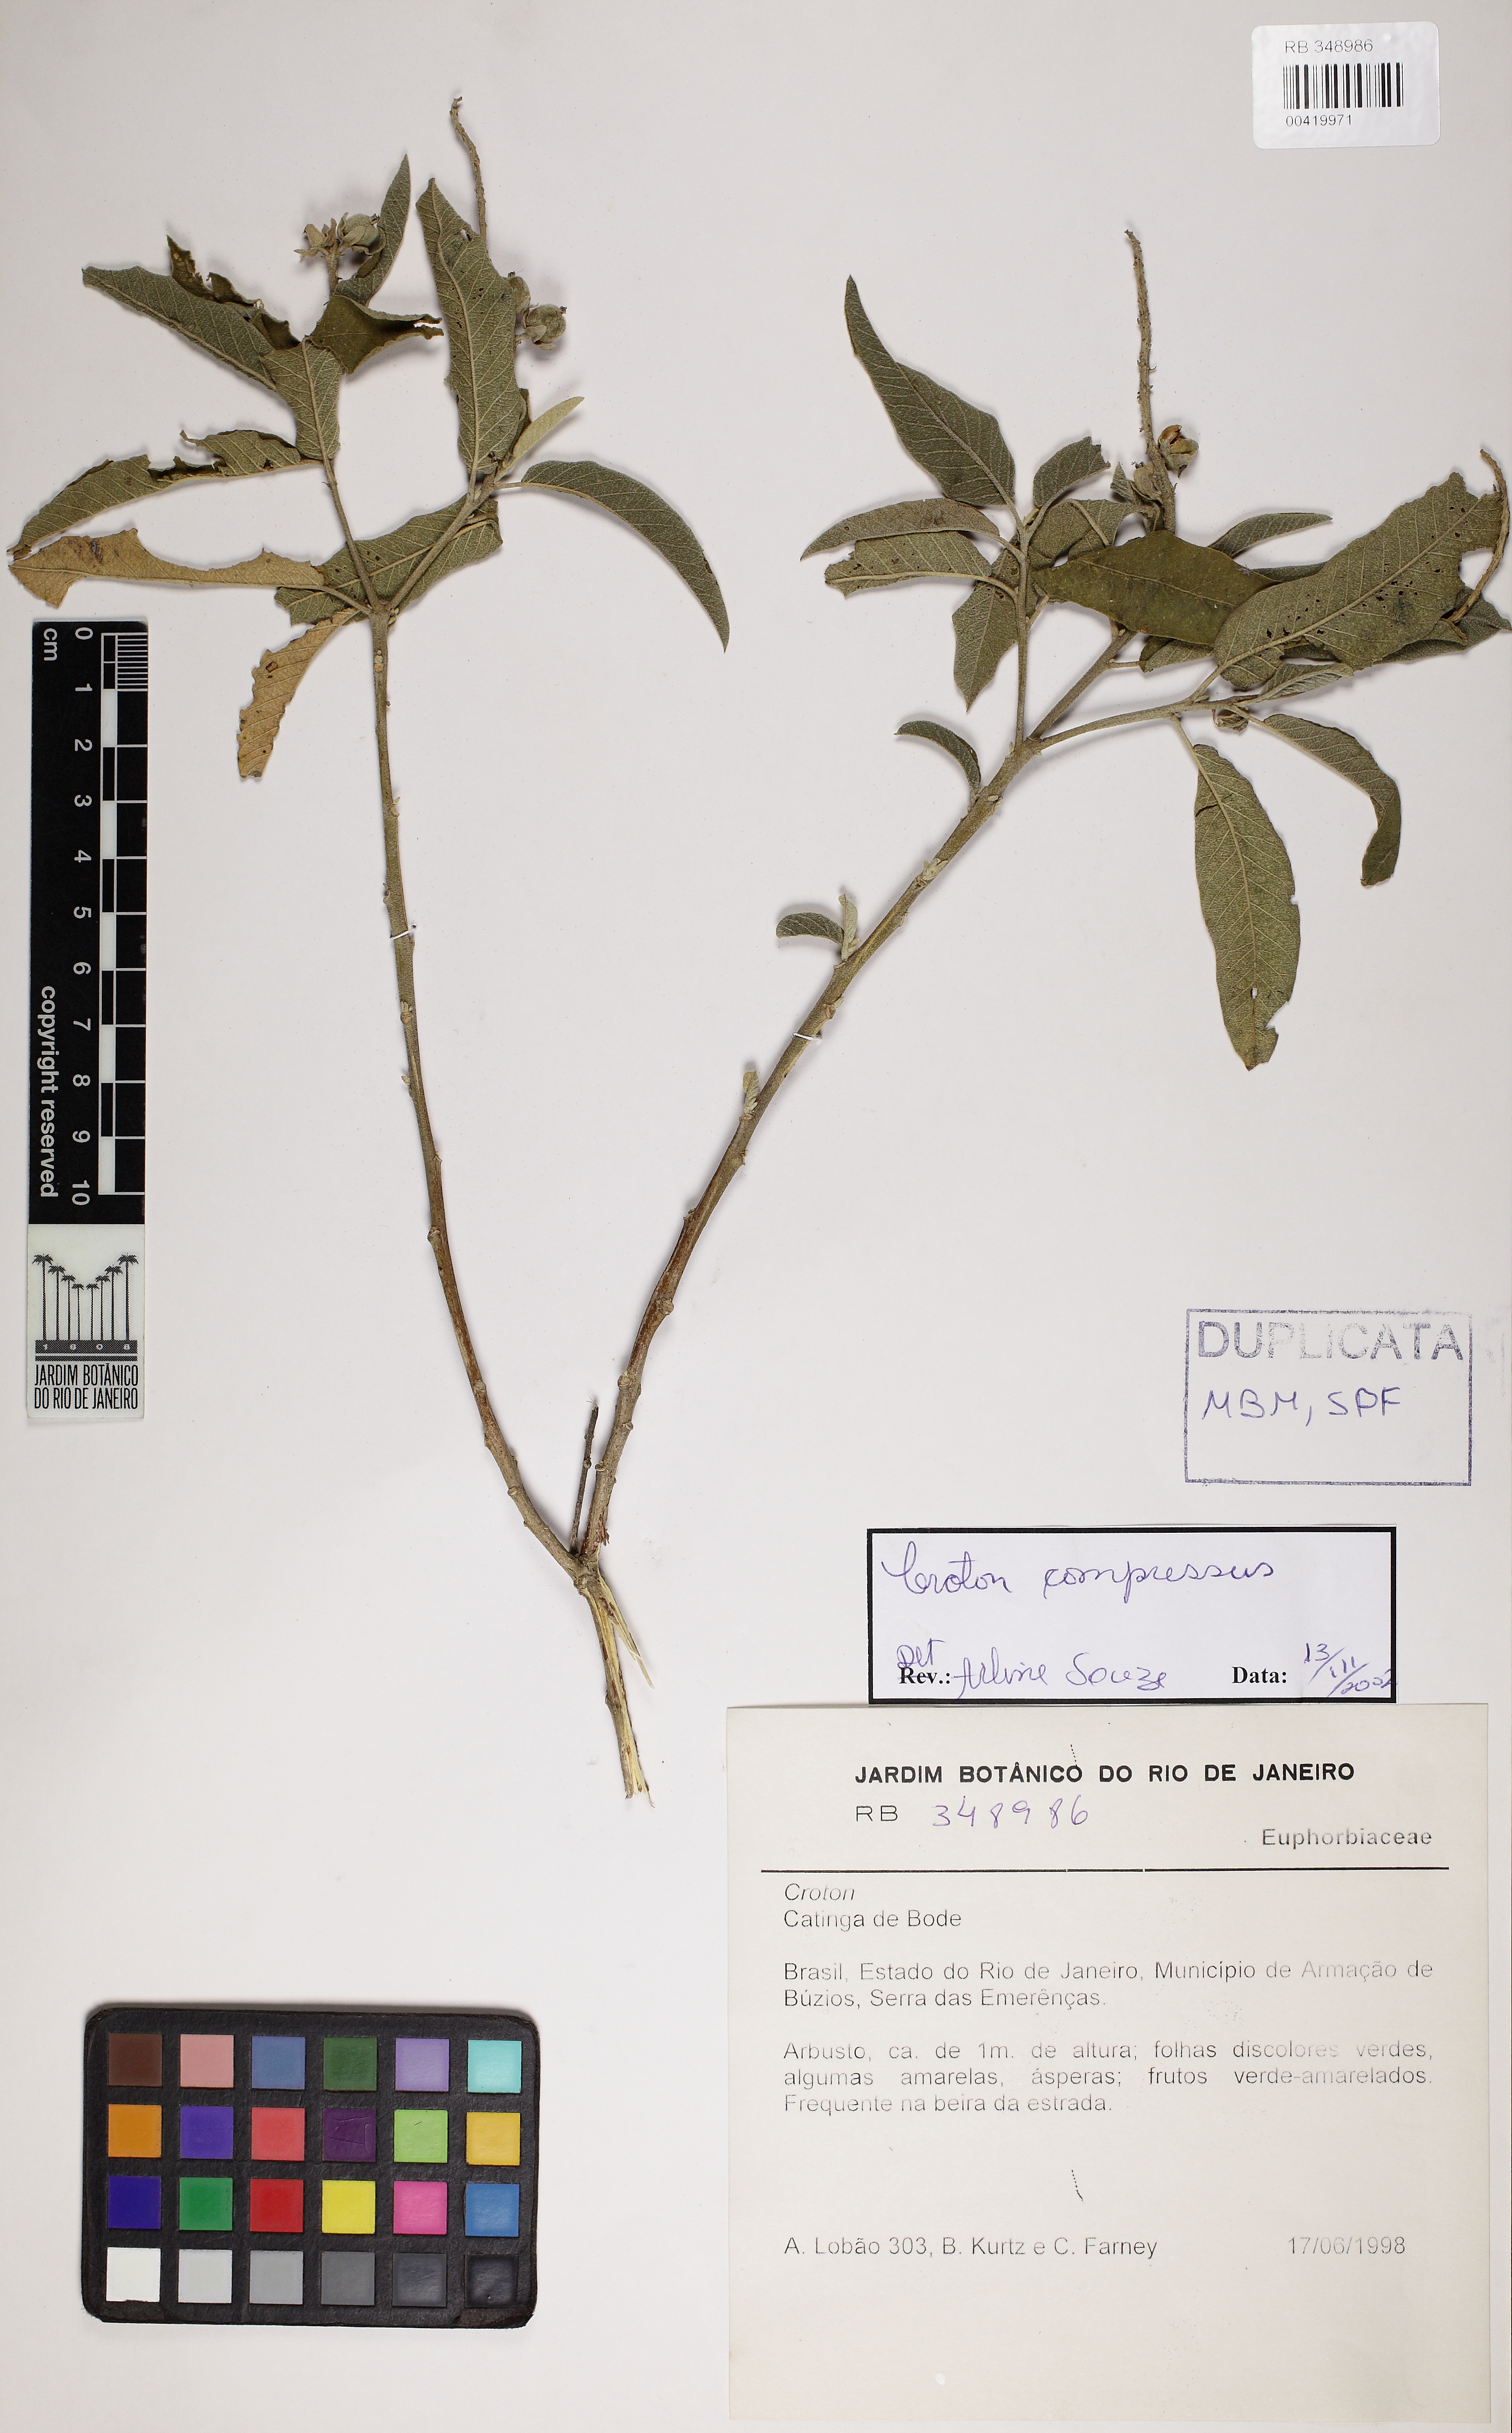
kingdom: Plantae
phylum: Tracheophyta
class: Magnoliopsida
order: Malpighiales
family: Euphorbiaceae
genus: Croton
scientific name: Croton compressus
